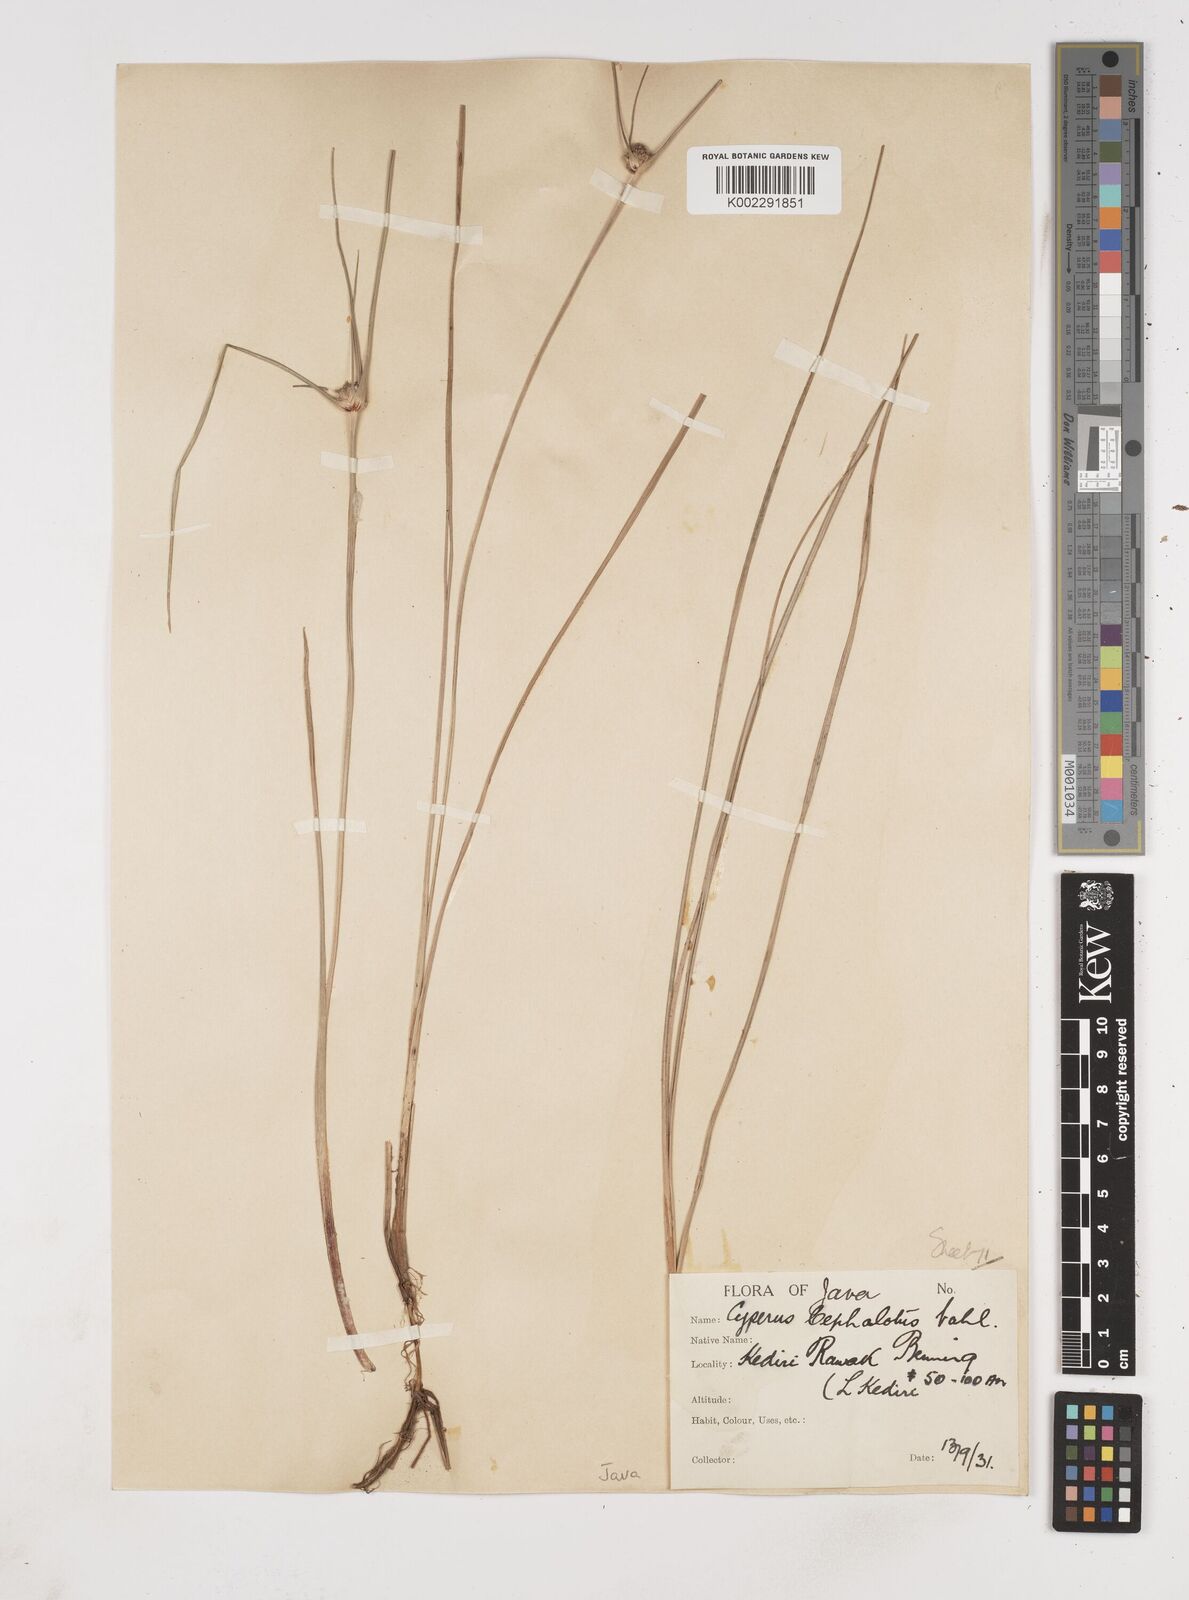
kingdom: Plantae
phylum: Tracheophyta
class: Liliopsida
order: Poales
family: Cyperaceae
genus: Cyperus
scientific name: Cyperus
